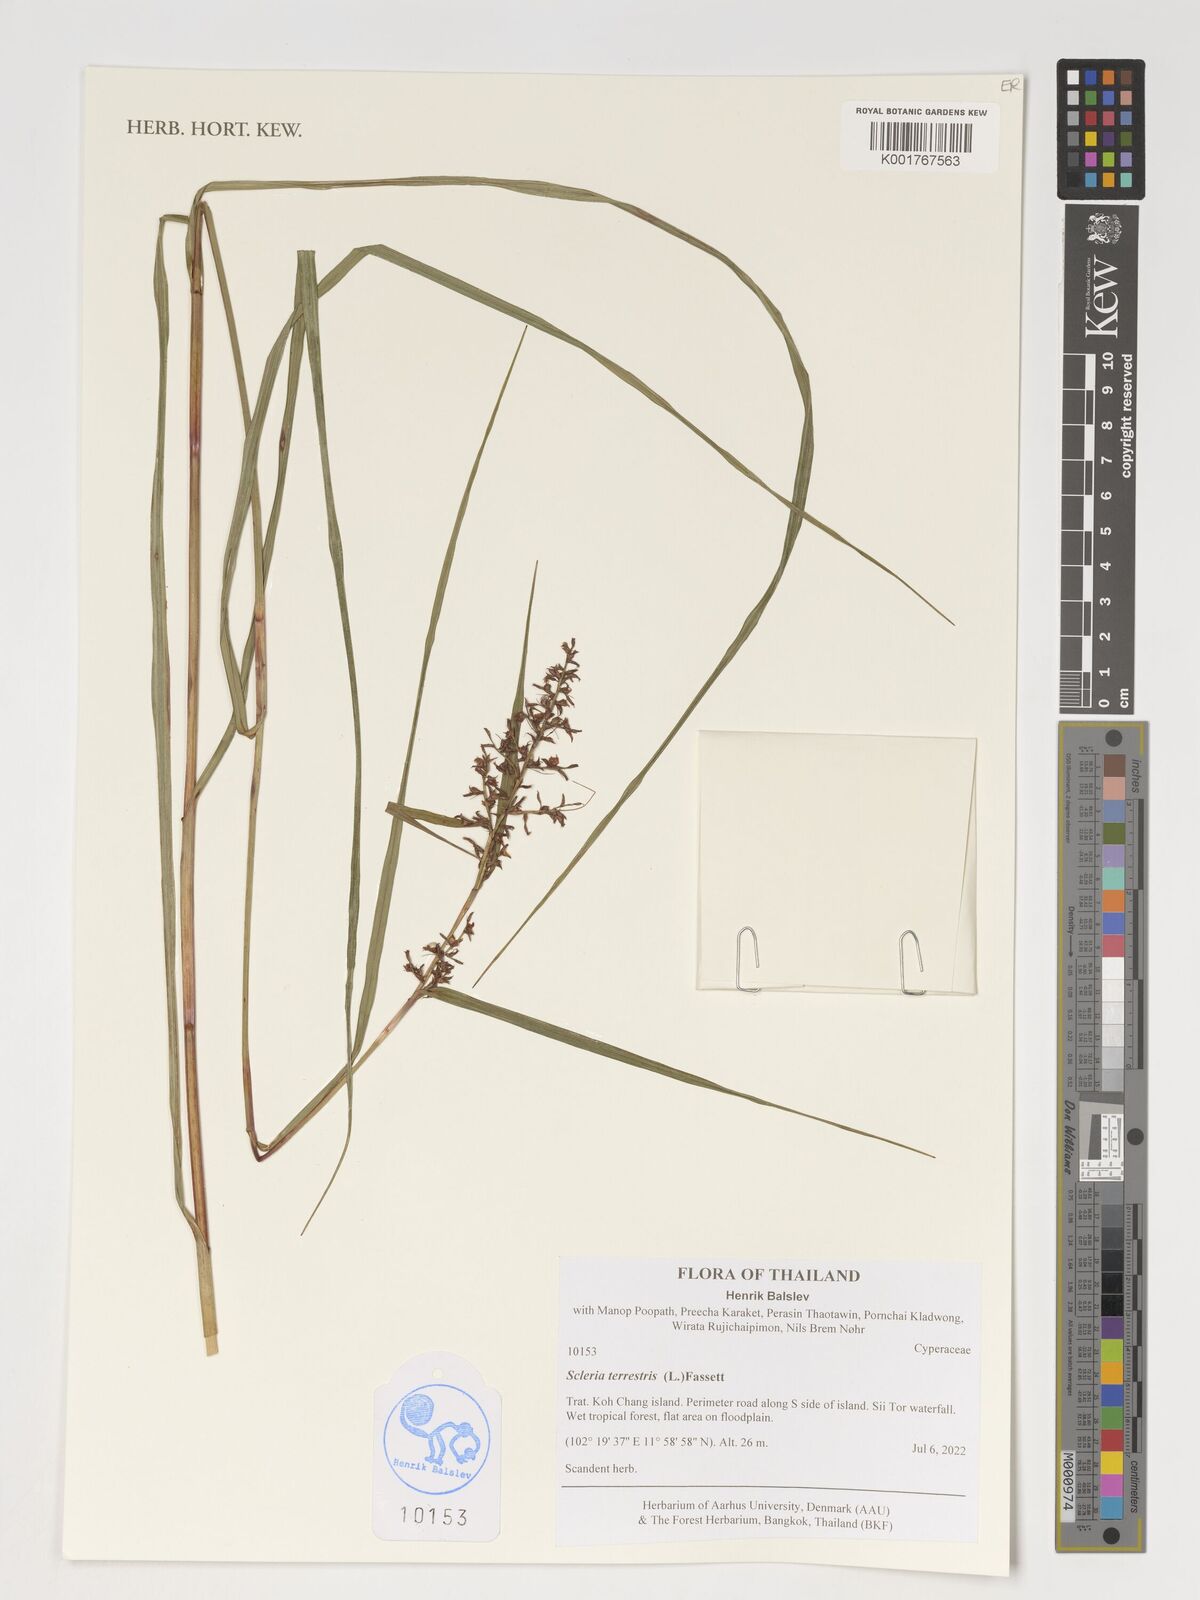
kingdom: Plantae
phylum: Tracheophyta
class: Liliopsida
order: Poales
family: Cyperaceae
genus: Scleria
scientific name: Scleria terrestris
